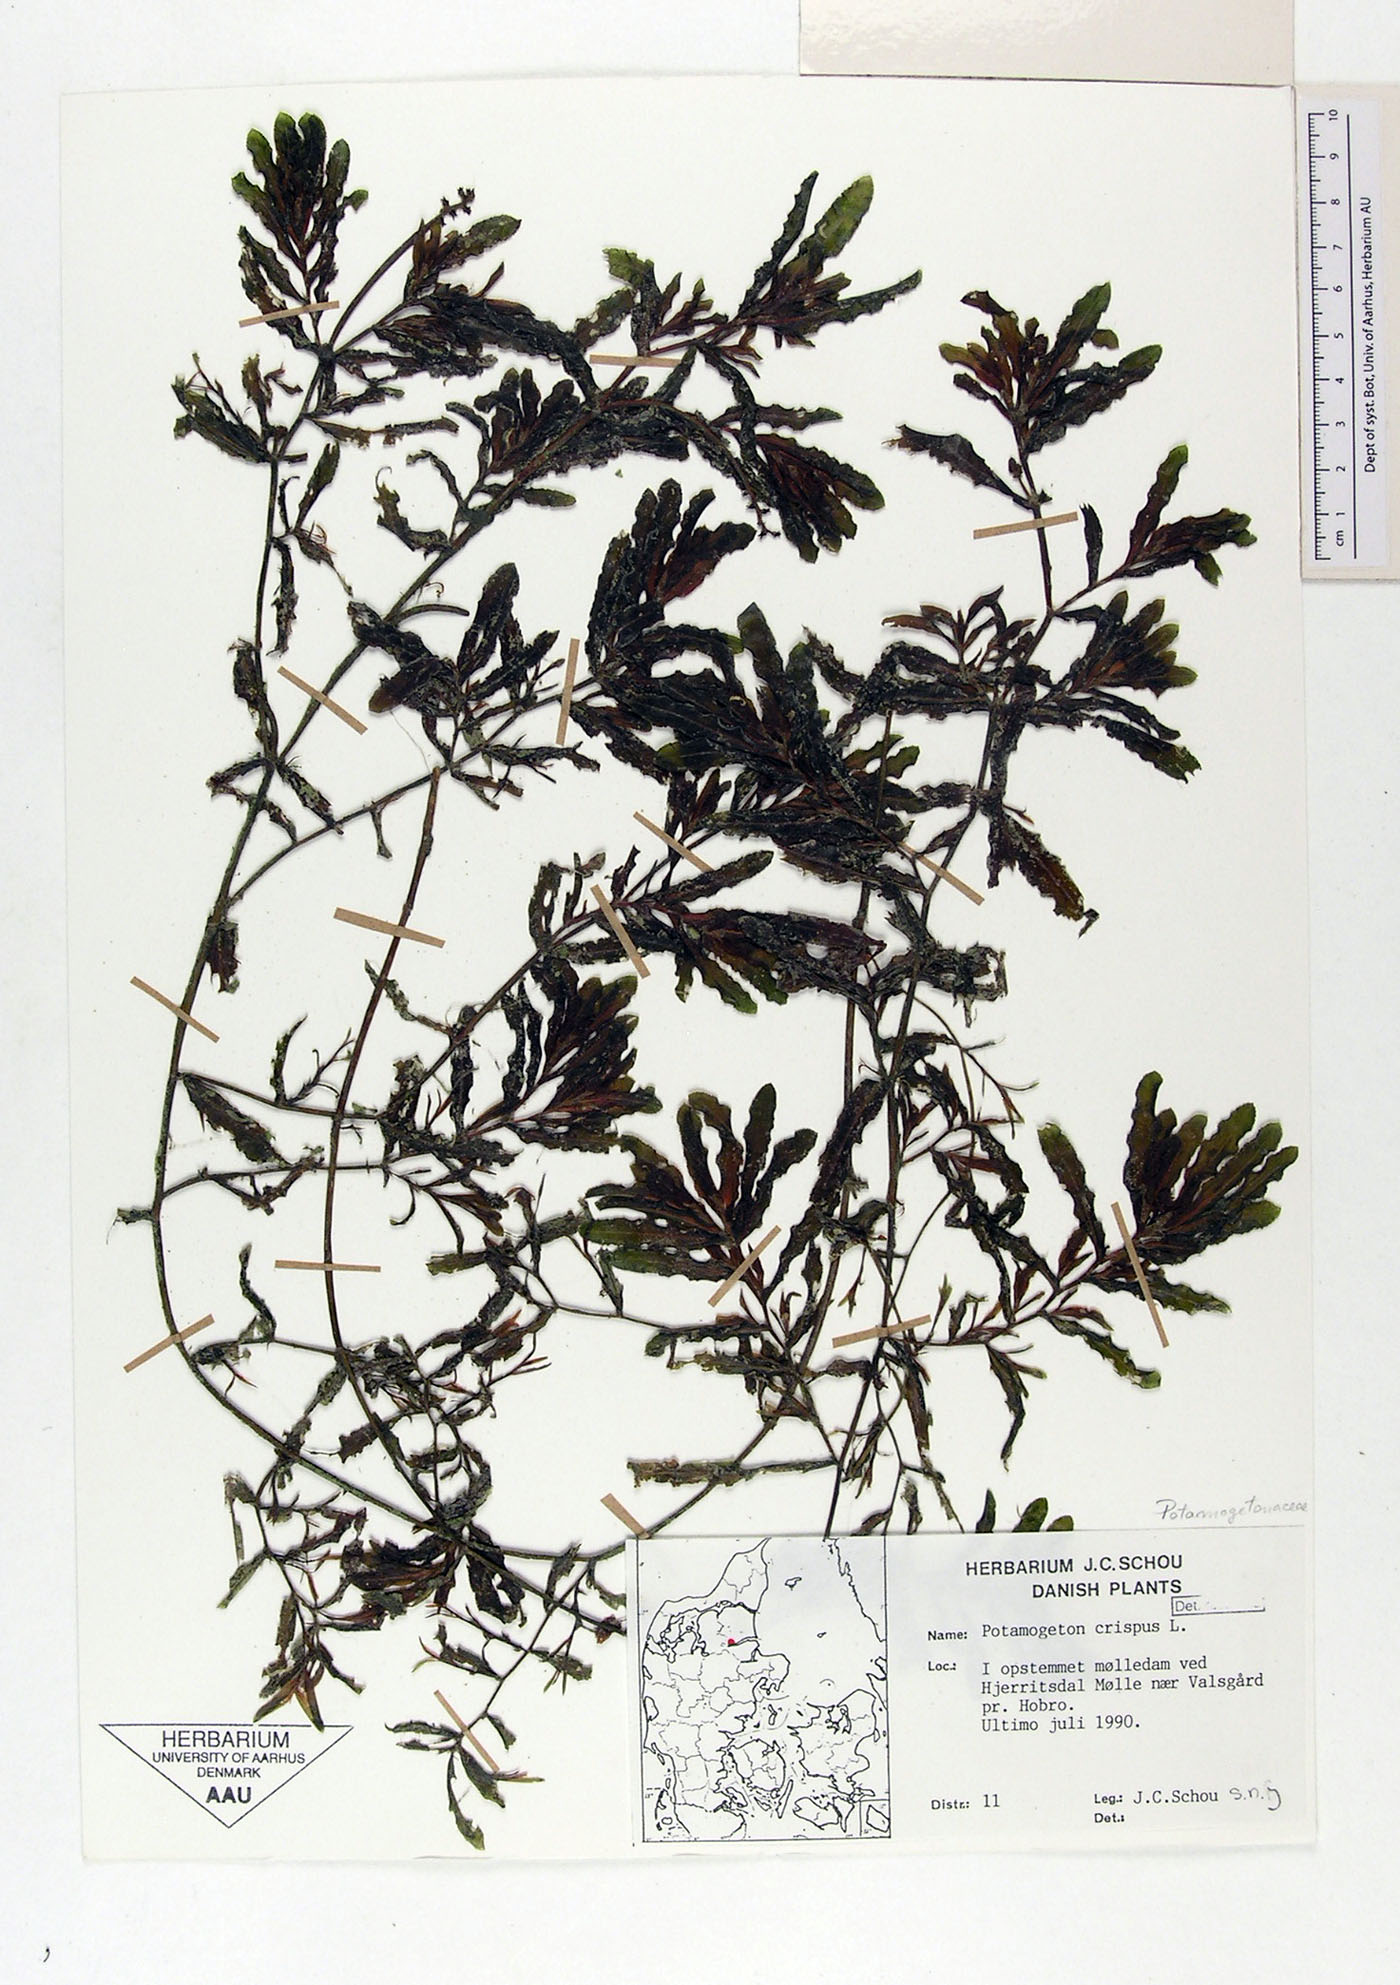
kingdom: Plantae
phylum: Tracheophyta
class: Liliopsida
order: Alismatales
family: Potamogetonaceae
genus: Potamogeton
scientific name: Potamogeton crispus
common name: Curled pondweed
